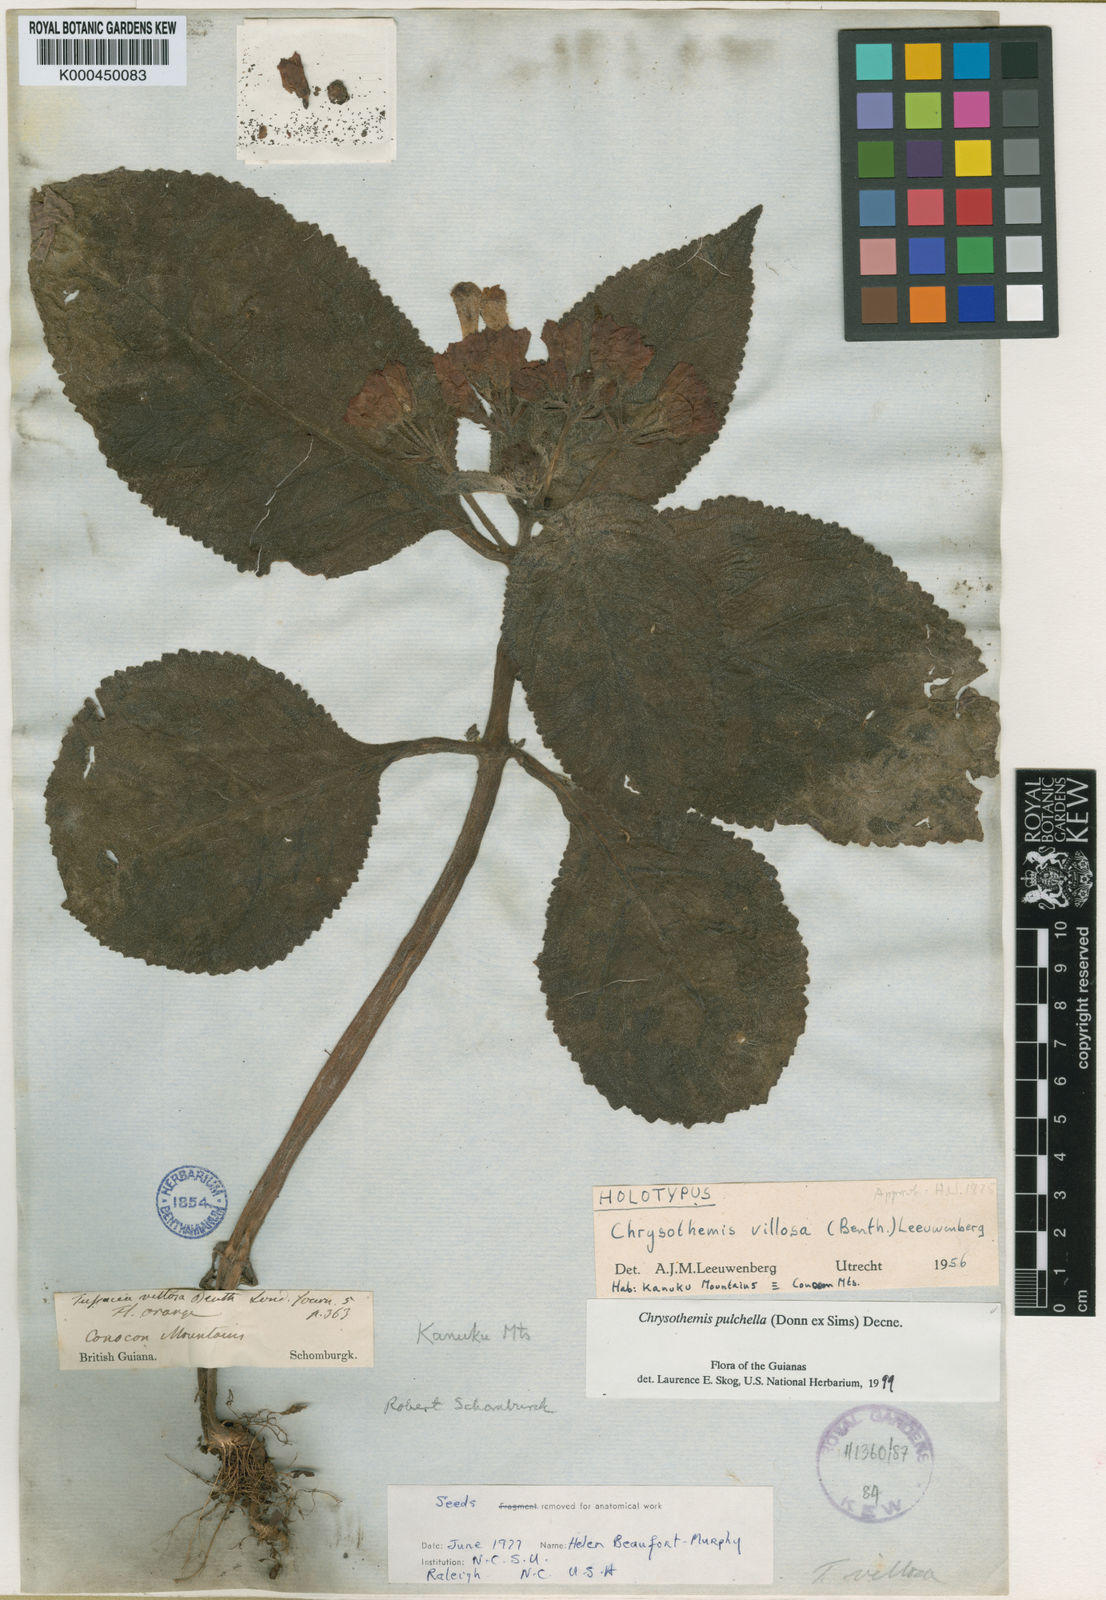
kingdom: Plantae
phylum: Tracheophyta
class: Magnoliopsida
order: Lamiales
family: Gesneriaceae
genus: Chrysothemis
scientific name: Chrysothemis pulchella
